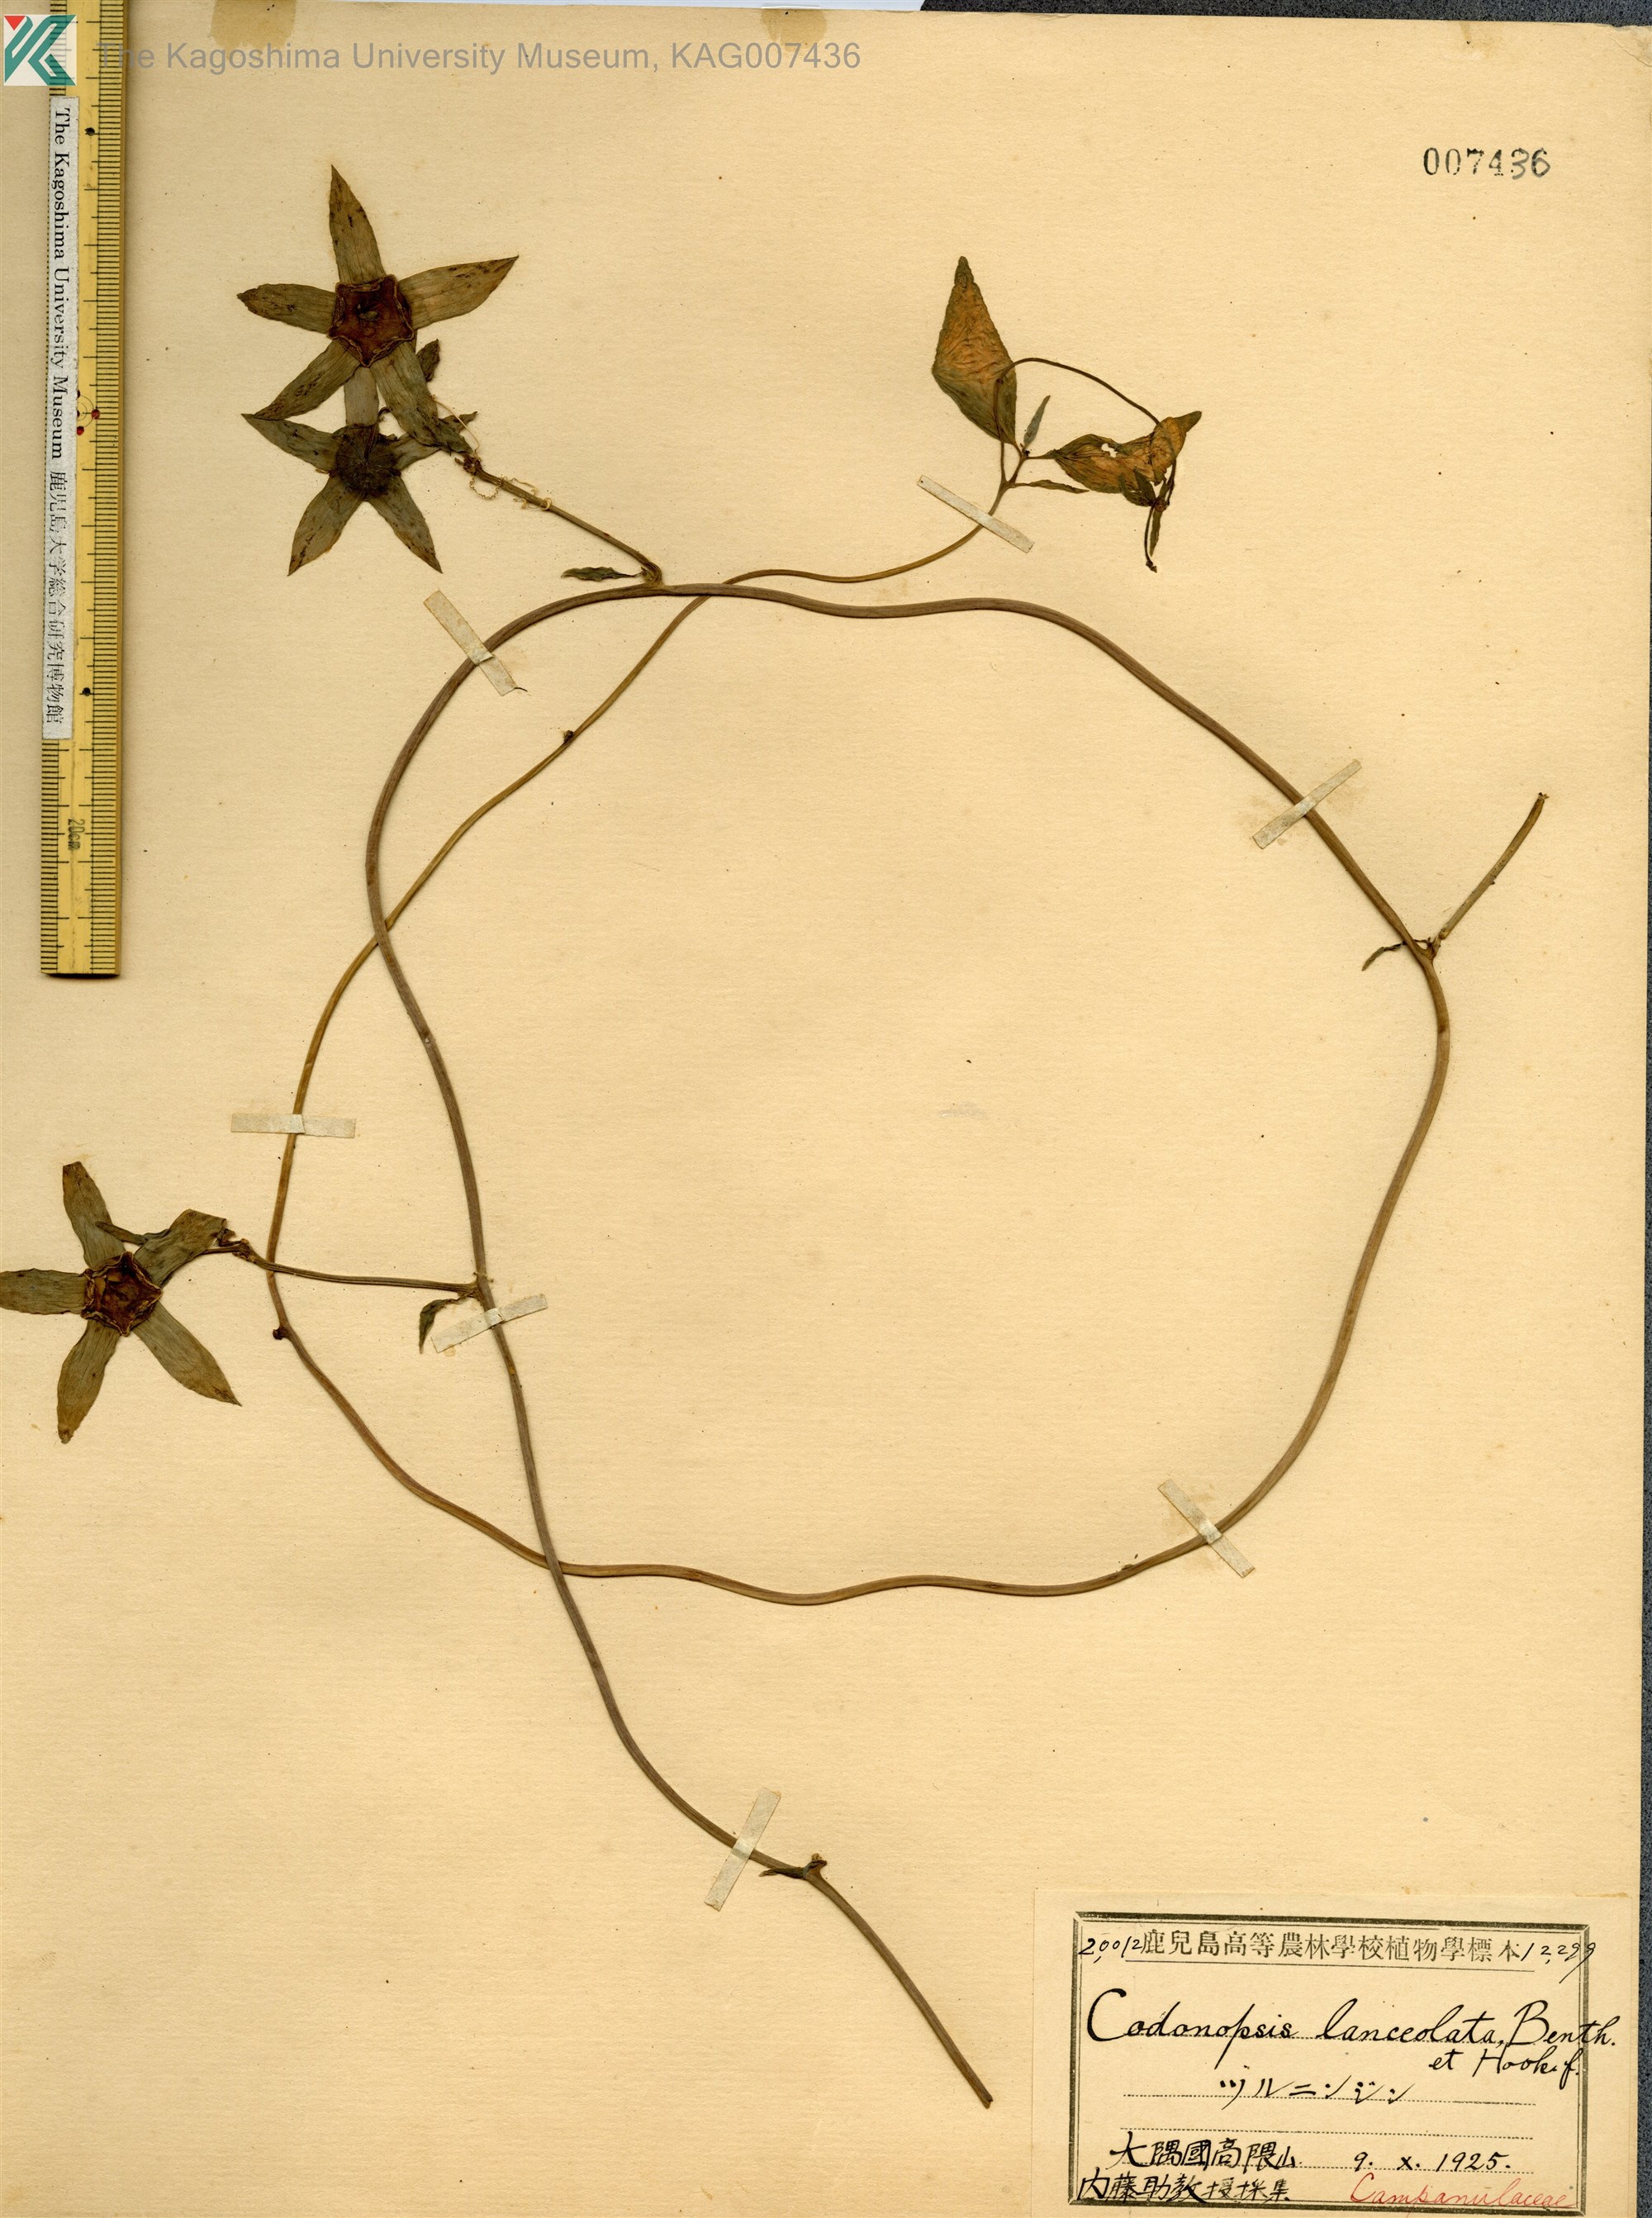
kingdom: Plantae
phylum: Tracheophyta
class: Magnoliopsida
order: Asterales
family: Campanulaceae
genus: Codonopsis
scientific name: Codonopsis lanceolata
